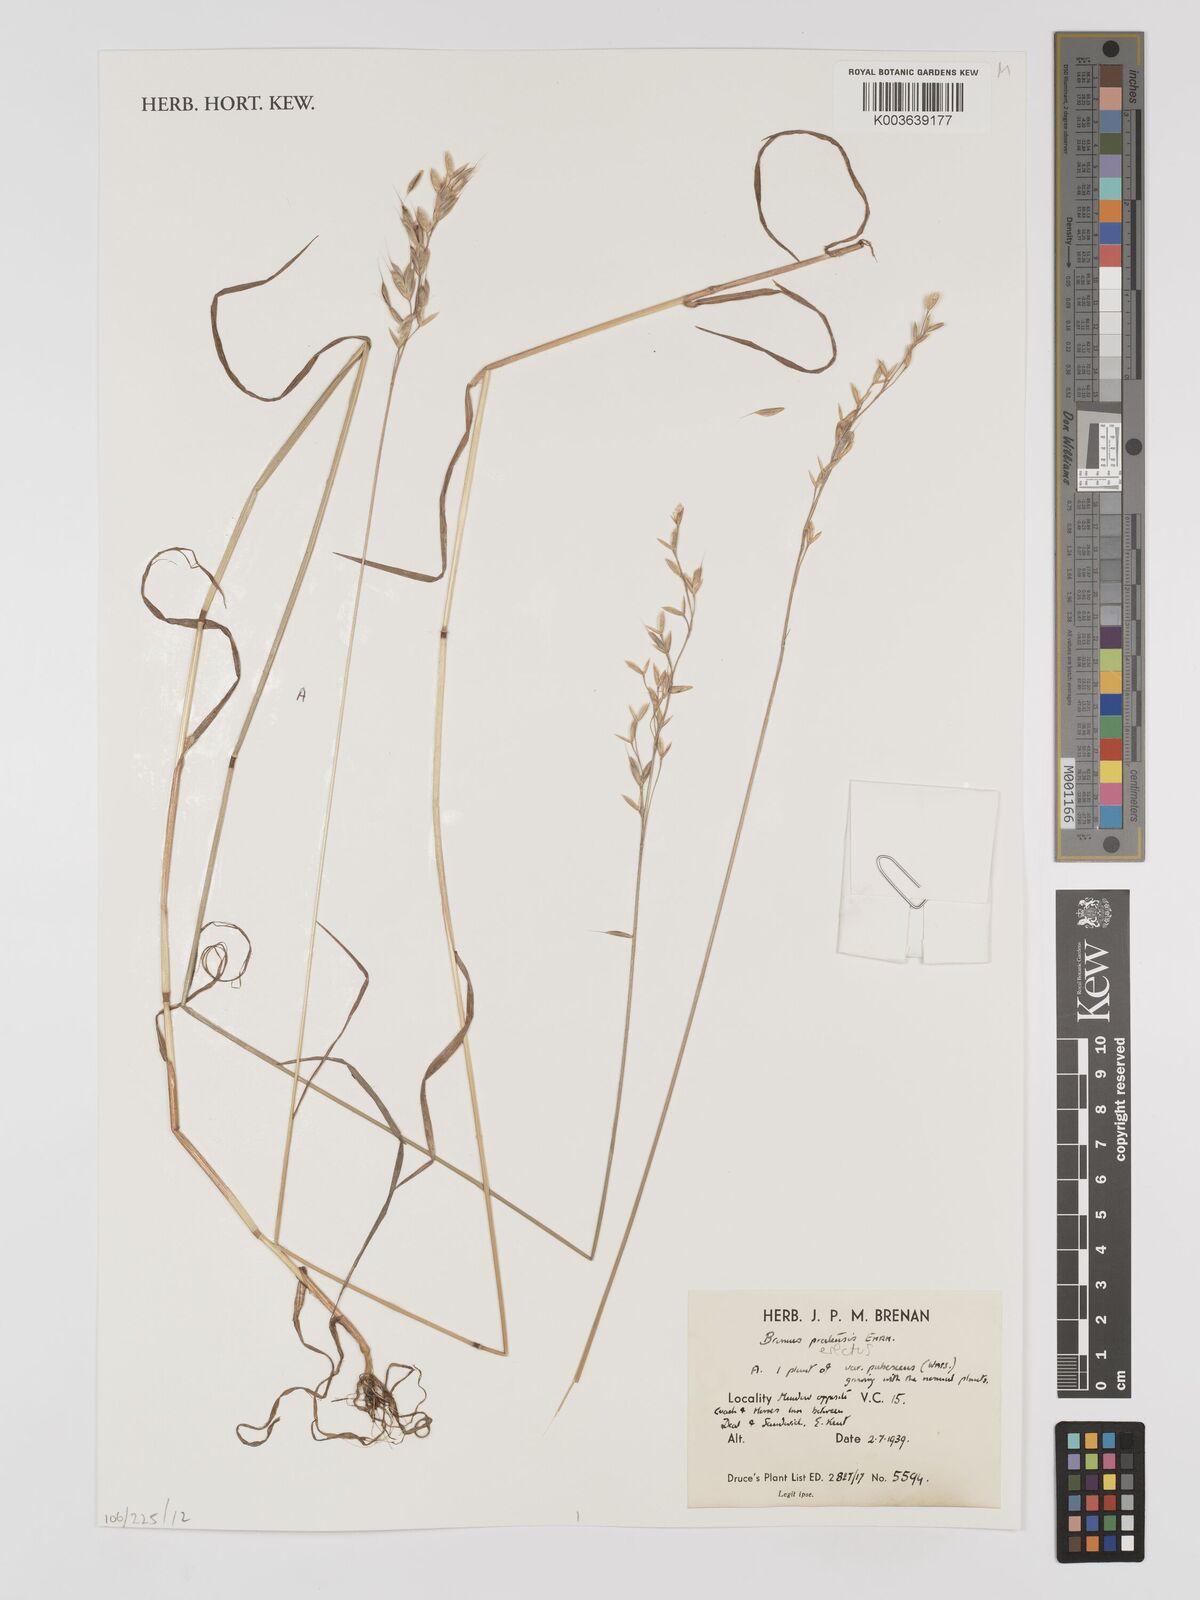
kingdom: Plantae
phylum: Tracheophyta
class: Liliopsida
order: Poales
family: Poaceae
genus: Bromus
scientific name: Bromus erectus
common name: Erect brome
